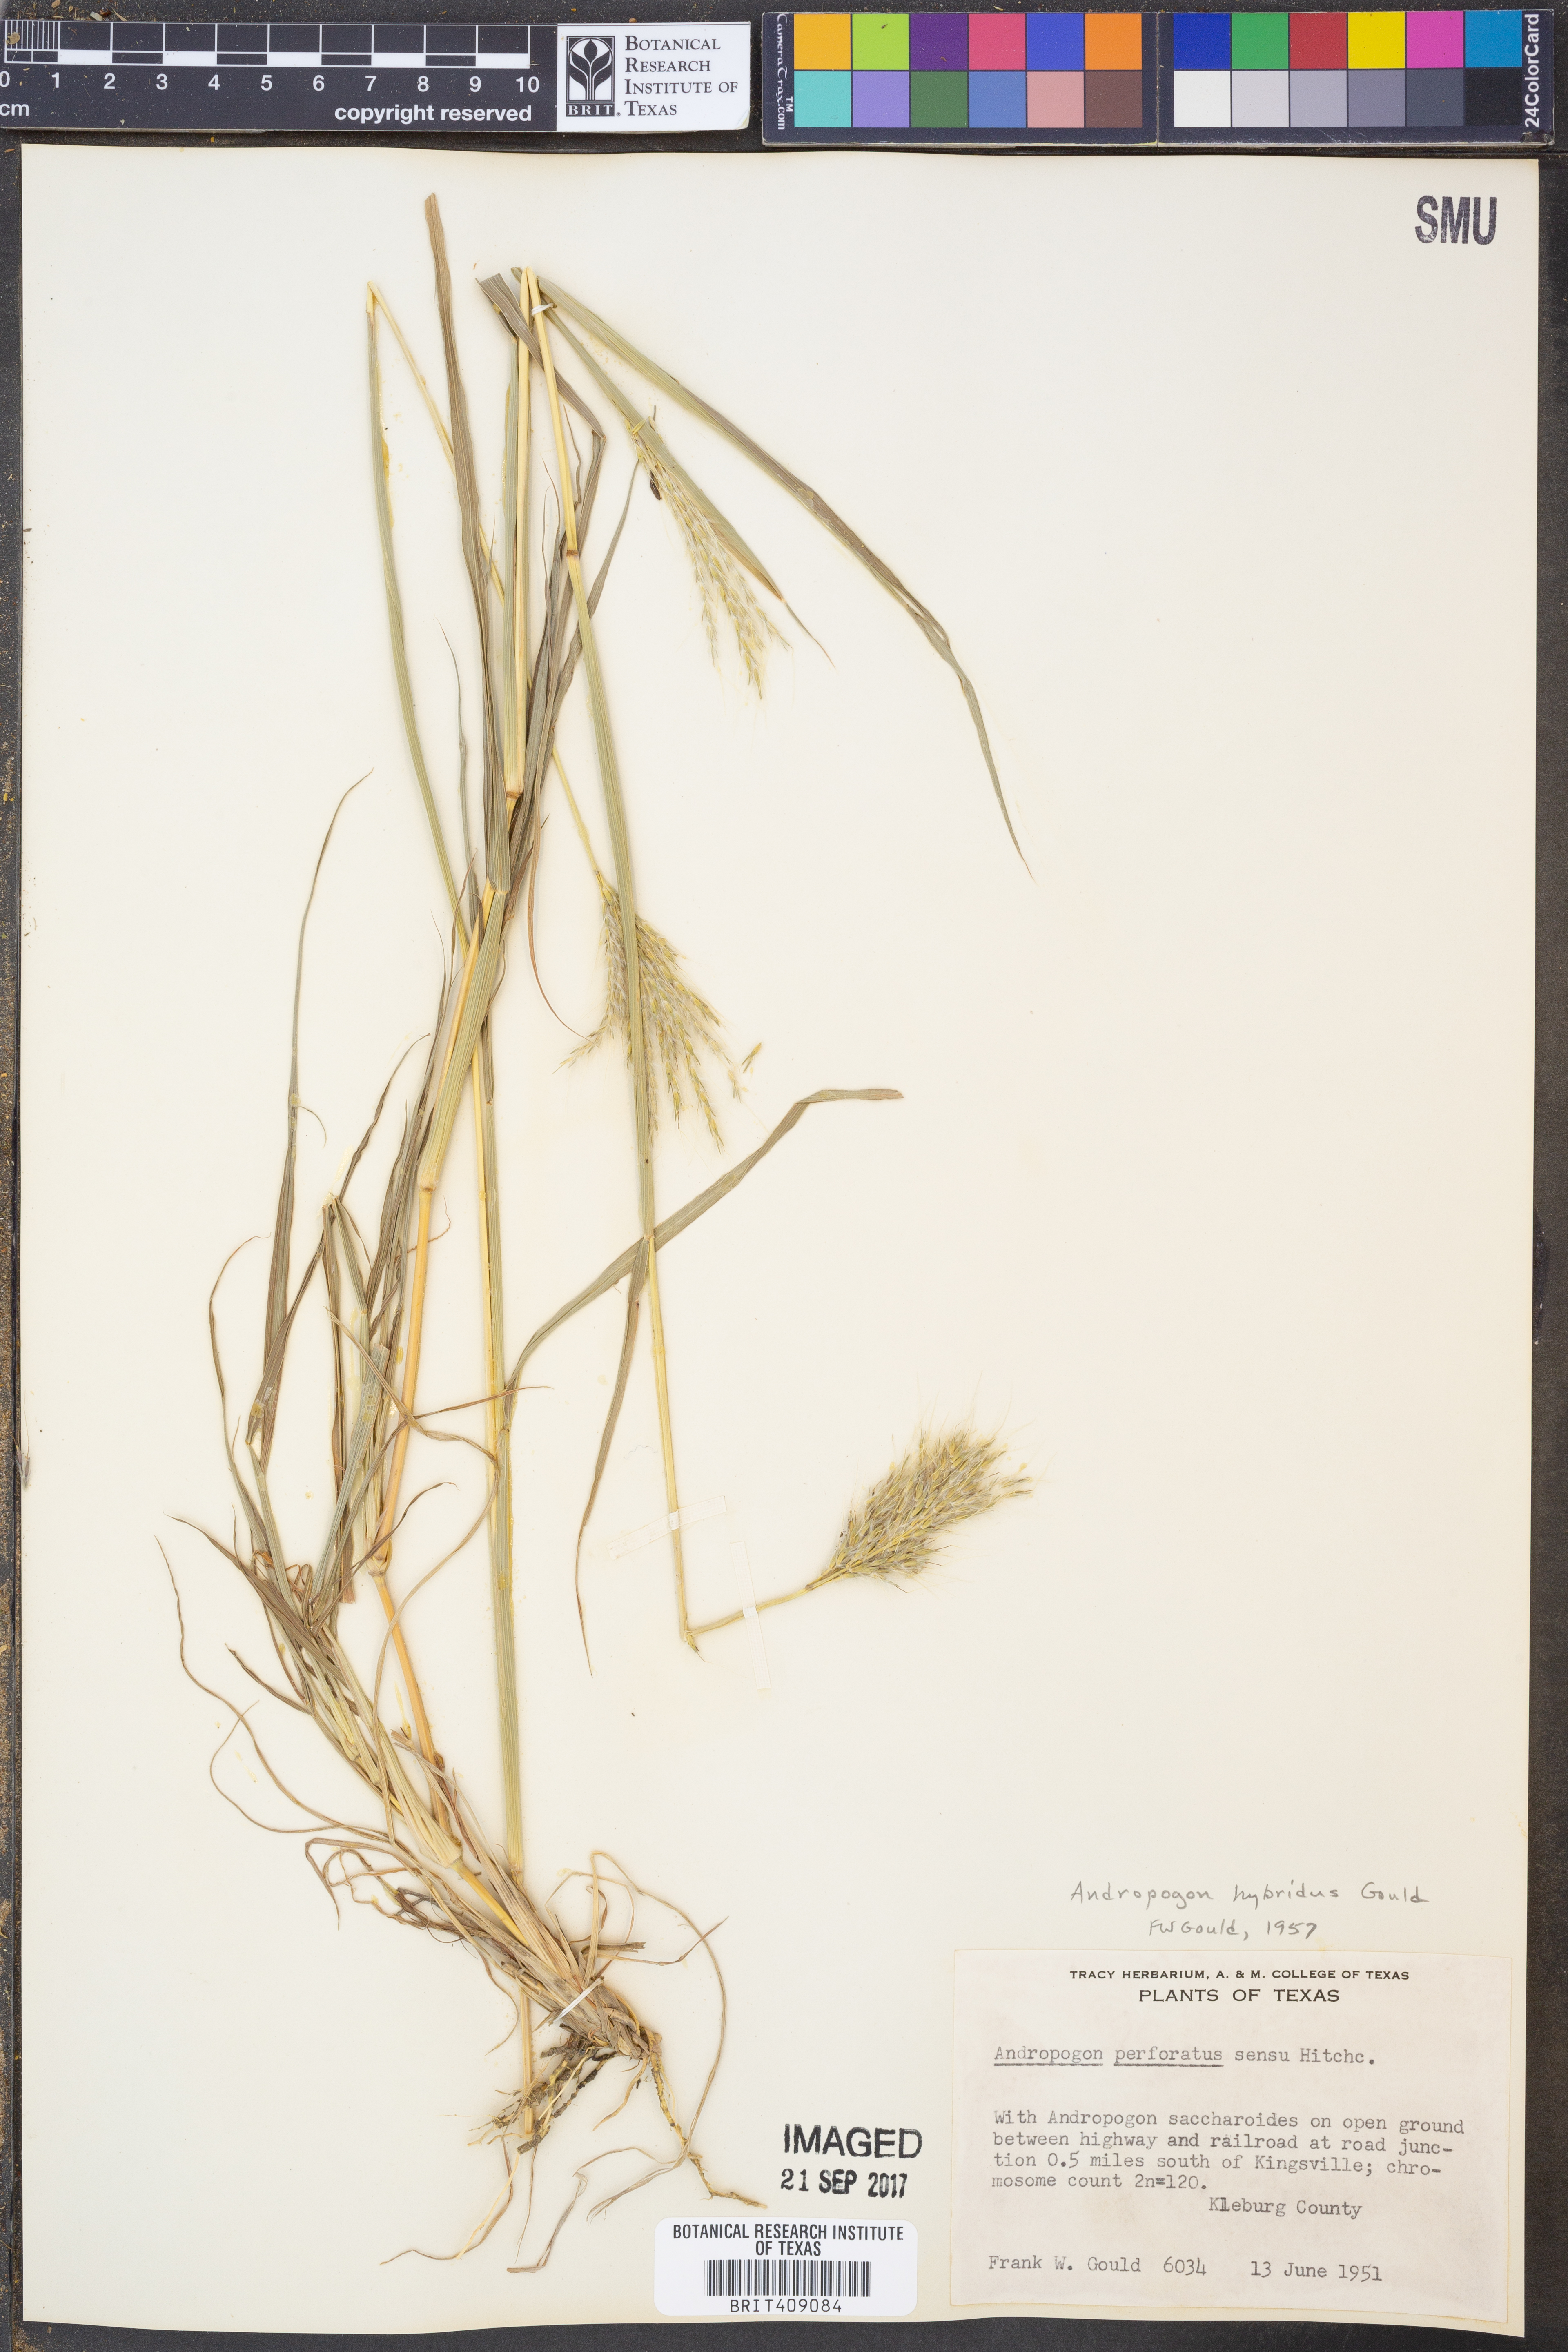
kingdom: Plantae
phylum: Tracheophyta
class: Liliopsida
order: Poales
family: Poaceae
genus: Bothriochloa
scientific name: Bothriochloa hybrida
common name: Hybrid bluestem
